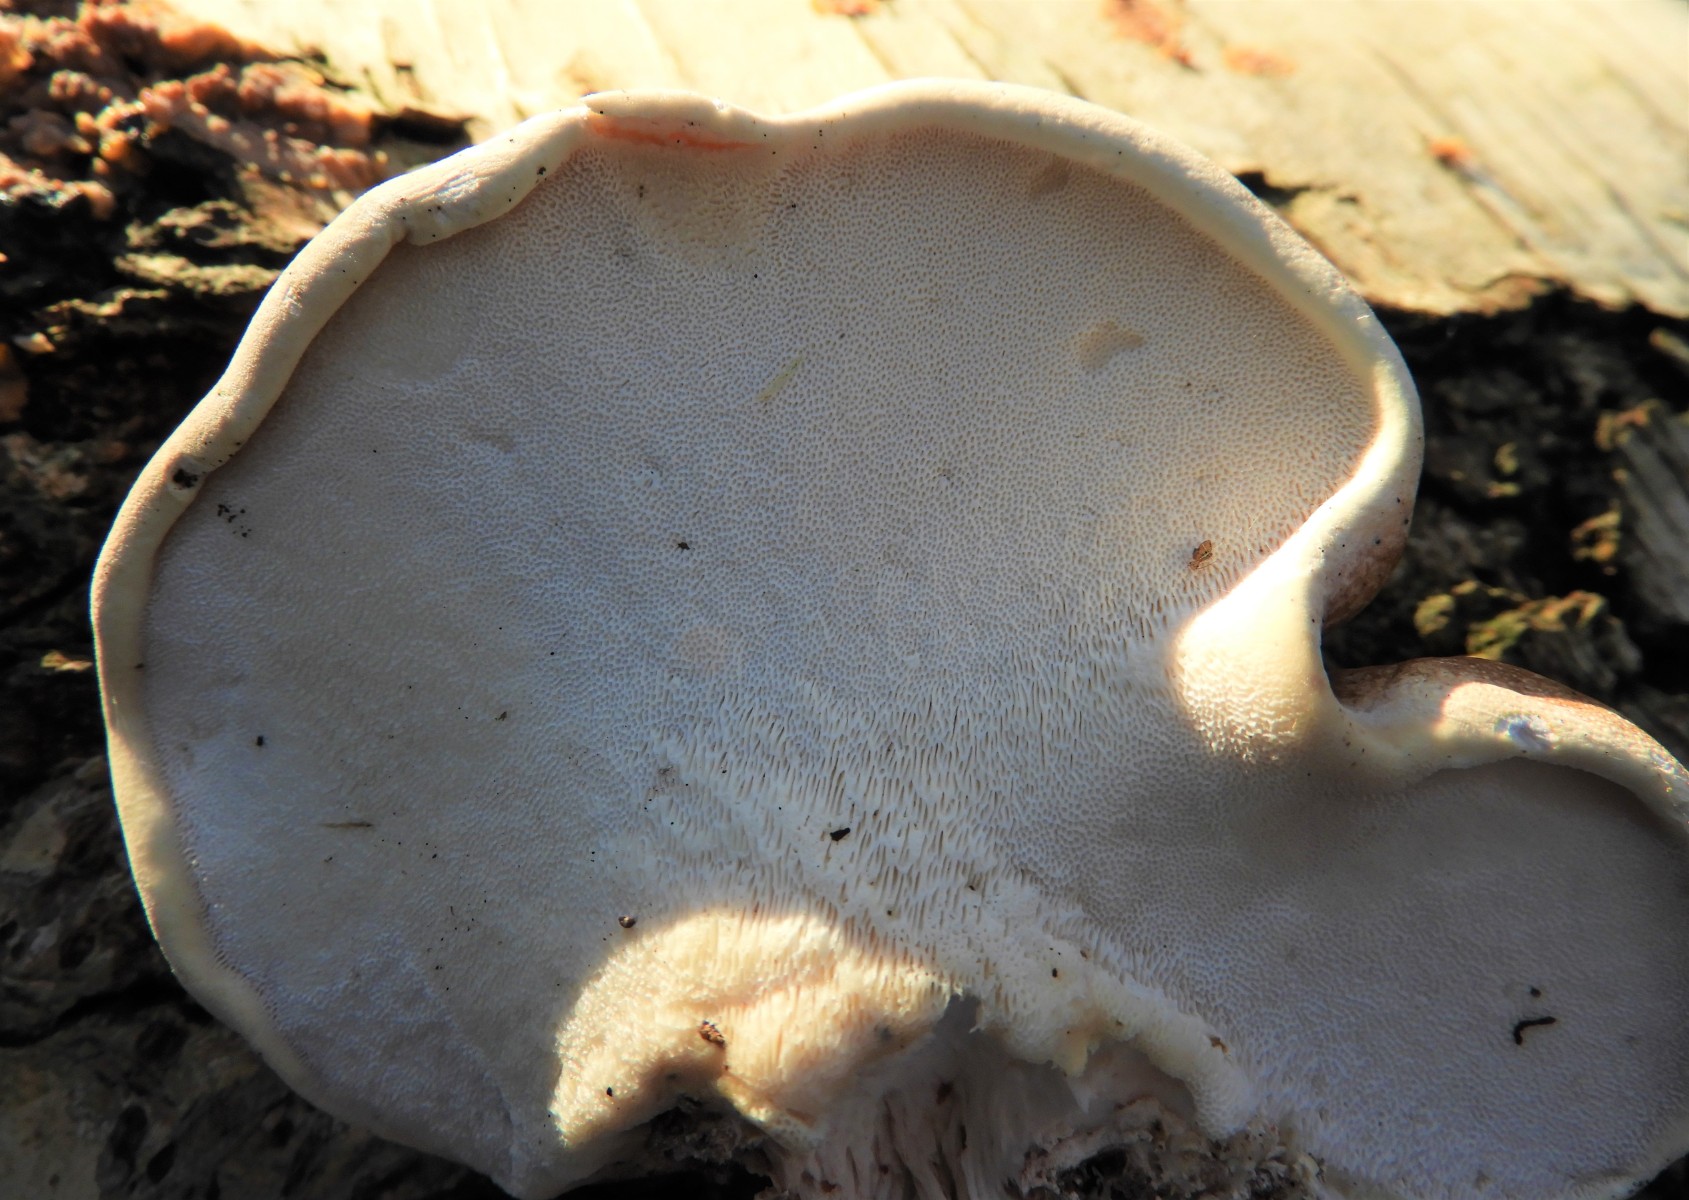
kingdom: Fungi
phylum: Basidiomycota
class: Agaricomycetes
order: Polyporales
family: Fomitopsidaceae
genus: Fomitopsis
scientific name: Fomitopsis betulina
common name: birkeporesvamp
